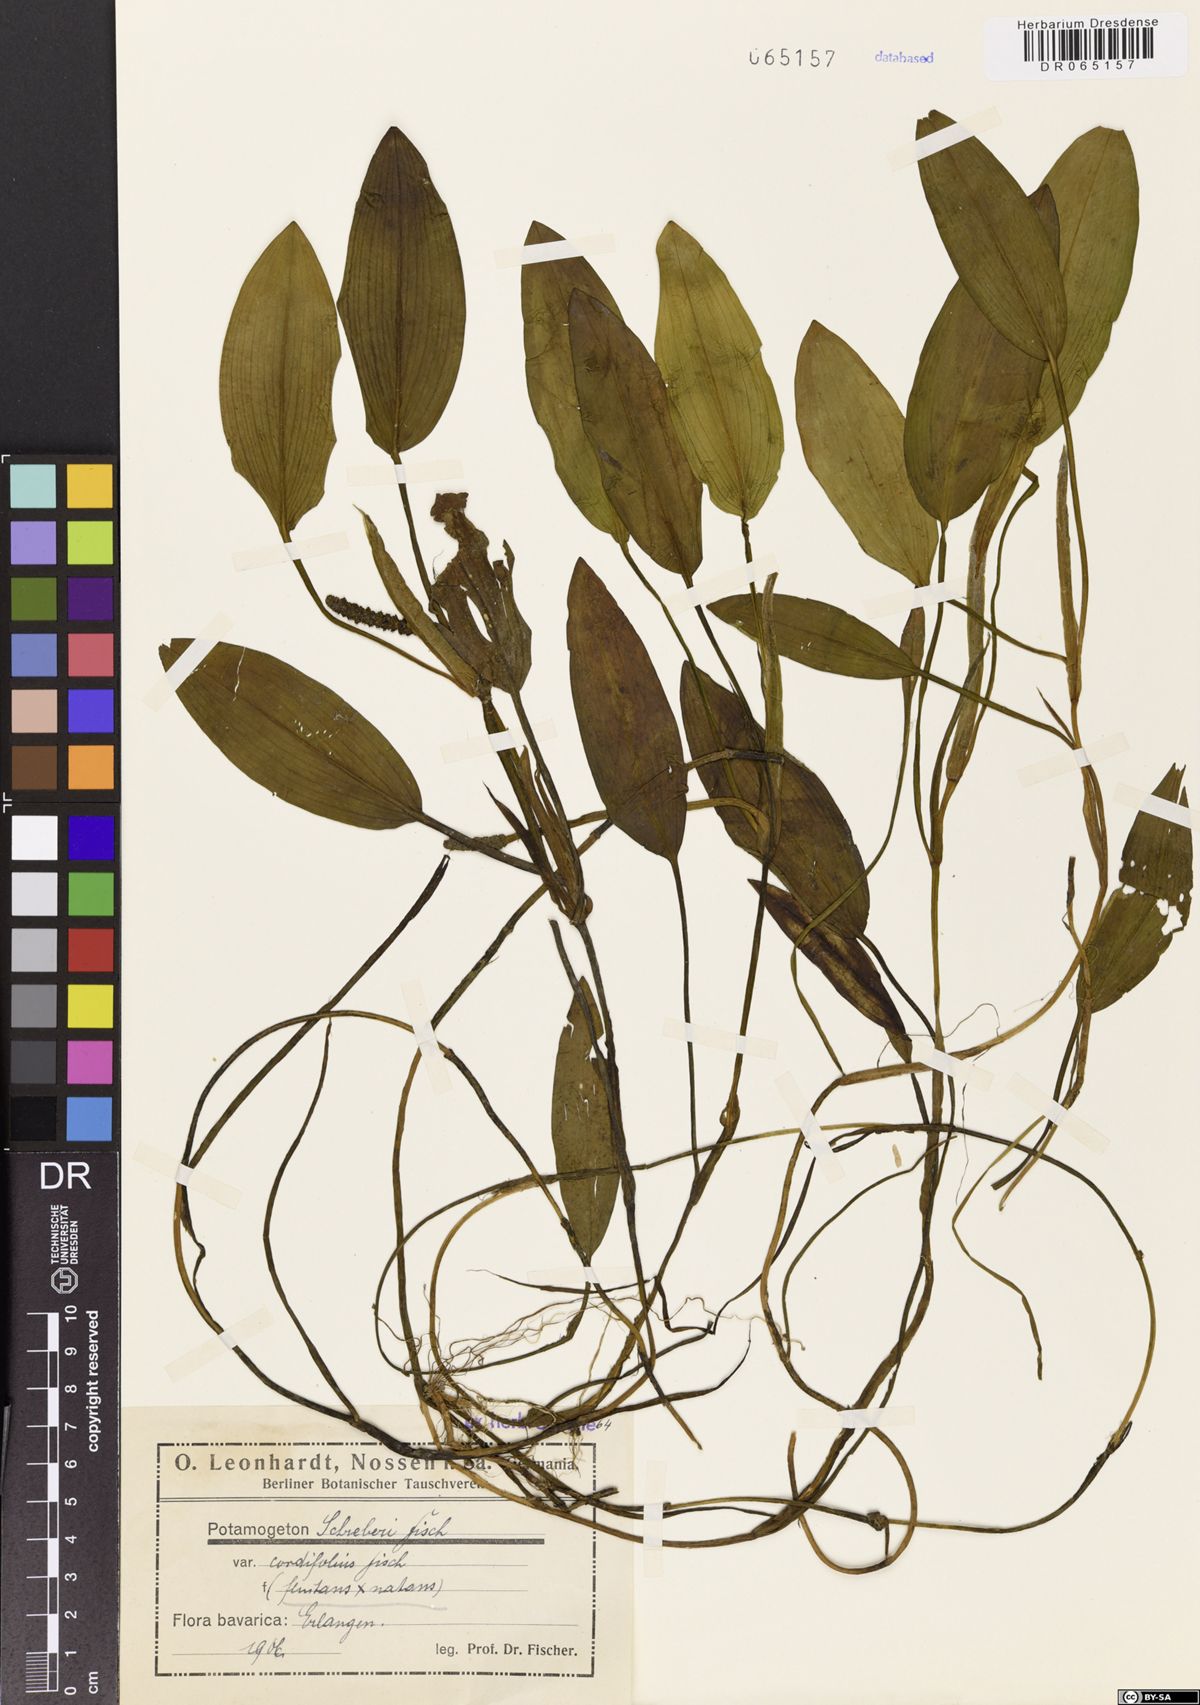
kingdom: Plantae
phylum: Tracheophyta
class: Liliopsida
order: Alismatales
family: Potamogetonaceae
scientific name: Potamogetonaceae
